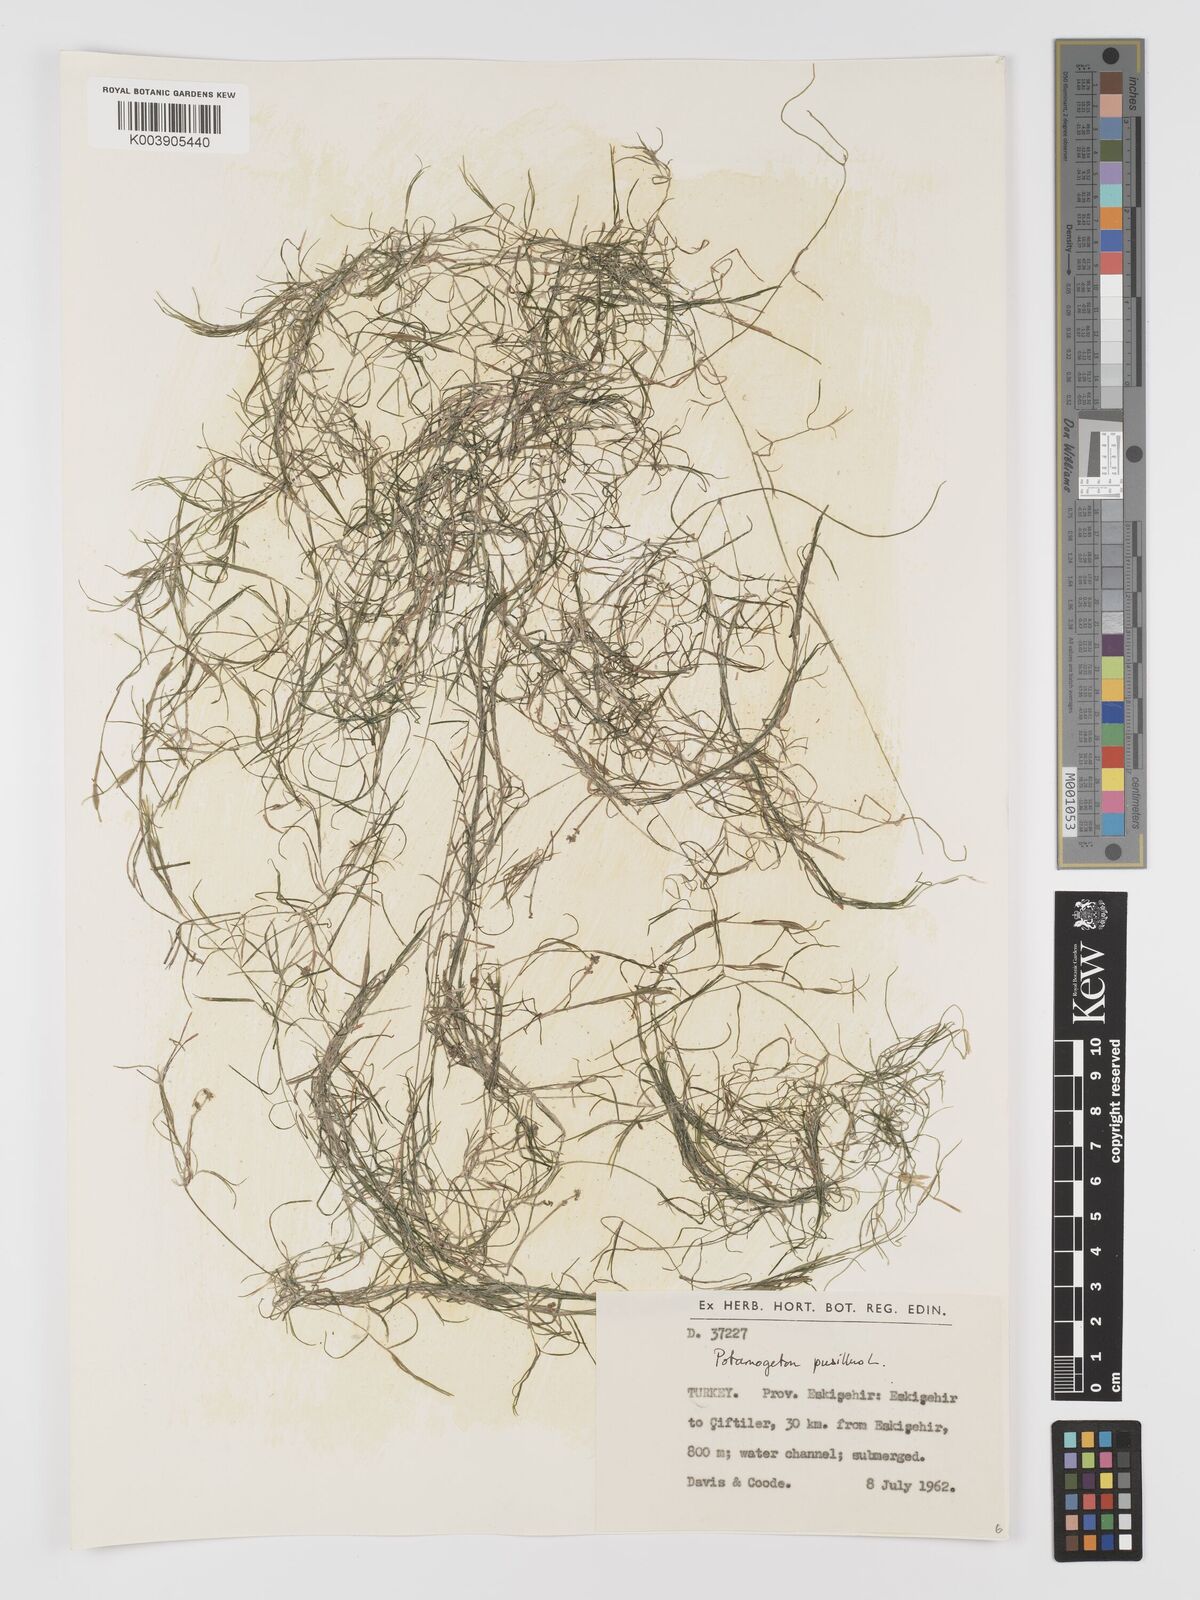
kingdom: Plantae
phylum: Tracheophyta
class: Liliopsida
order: Alismatales
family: Potamogetonaceae
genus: Potamogeton
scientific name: Potamogeton pusillus
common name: Lesser pondweed
